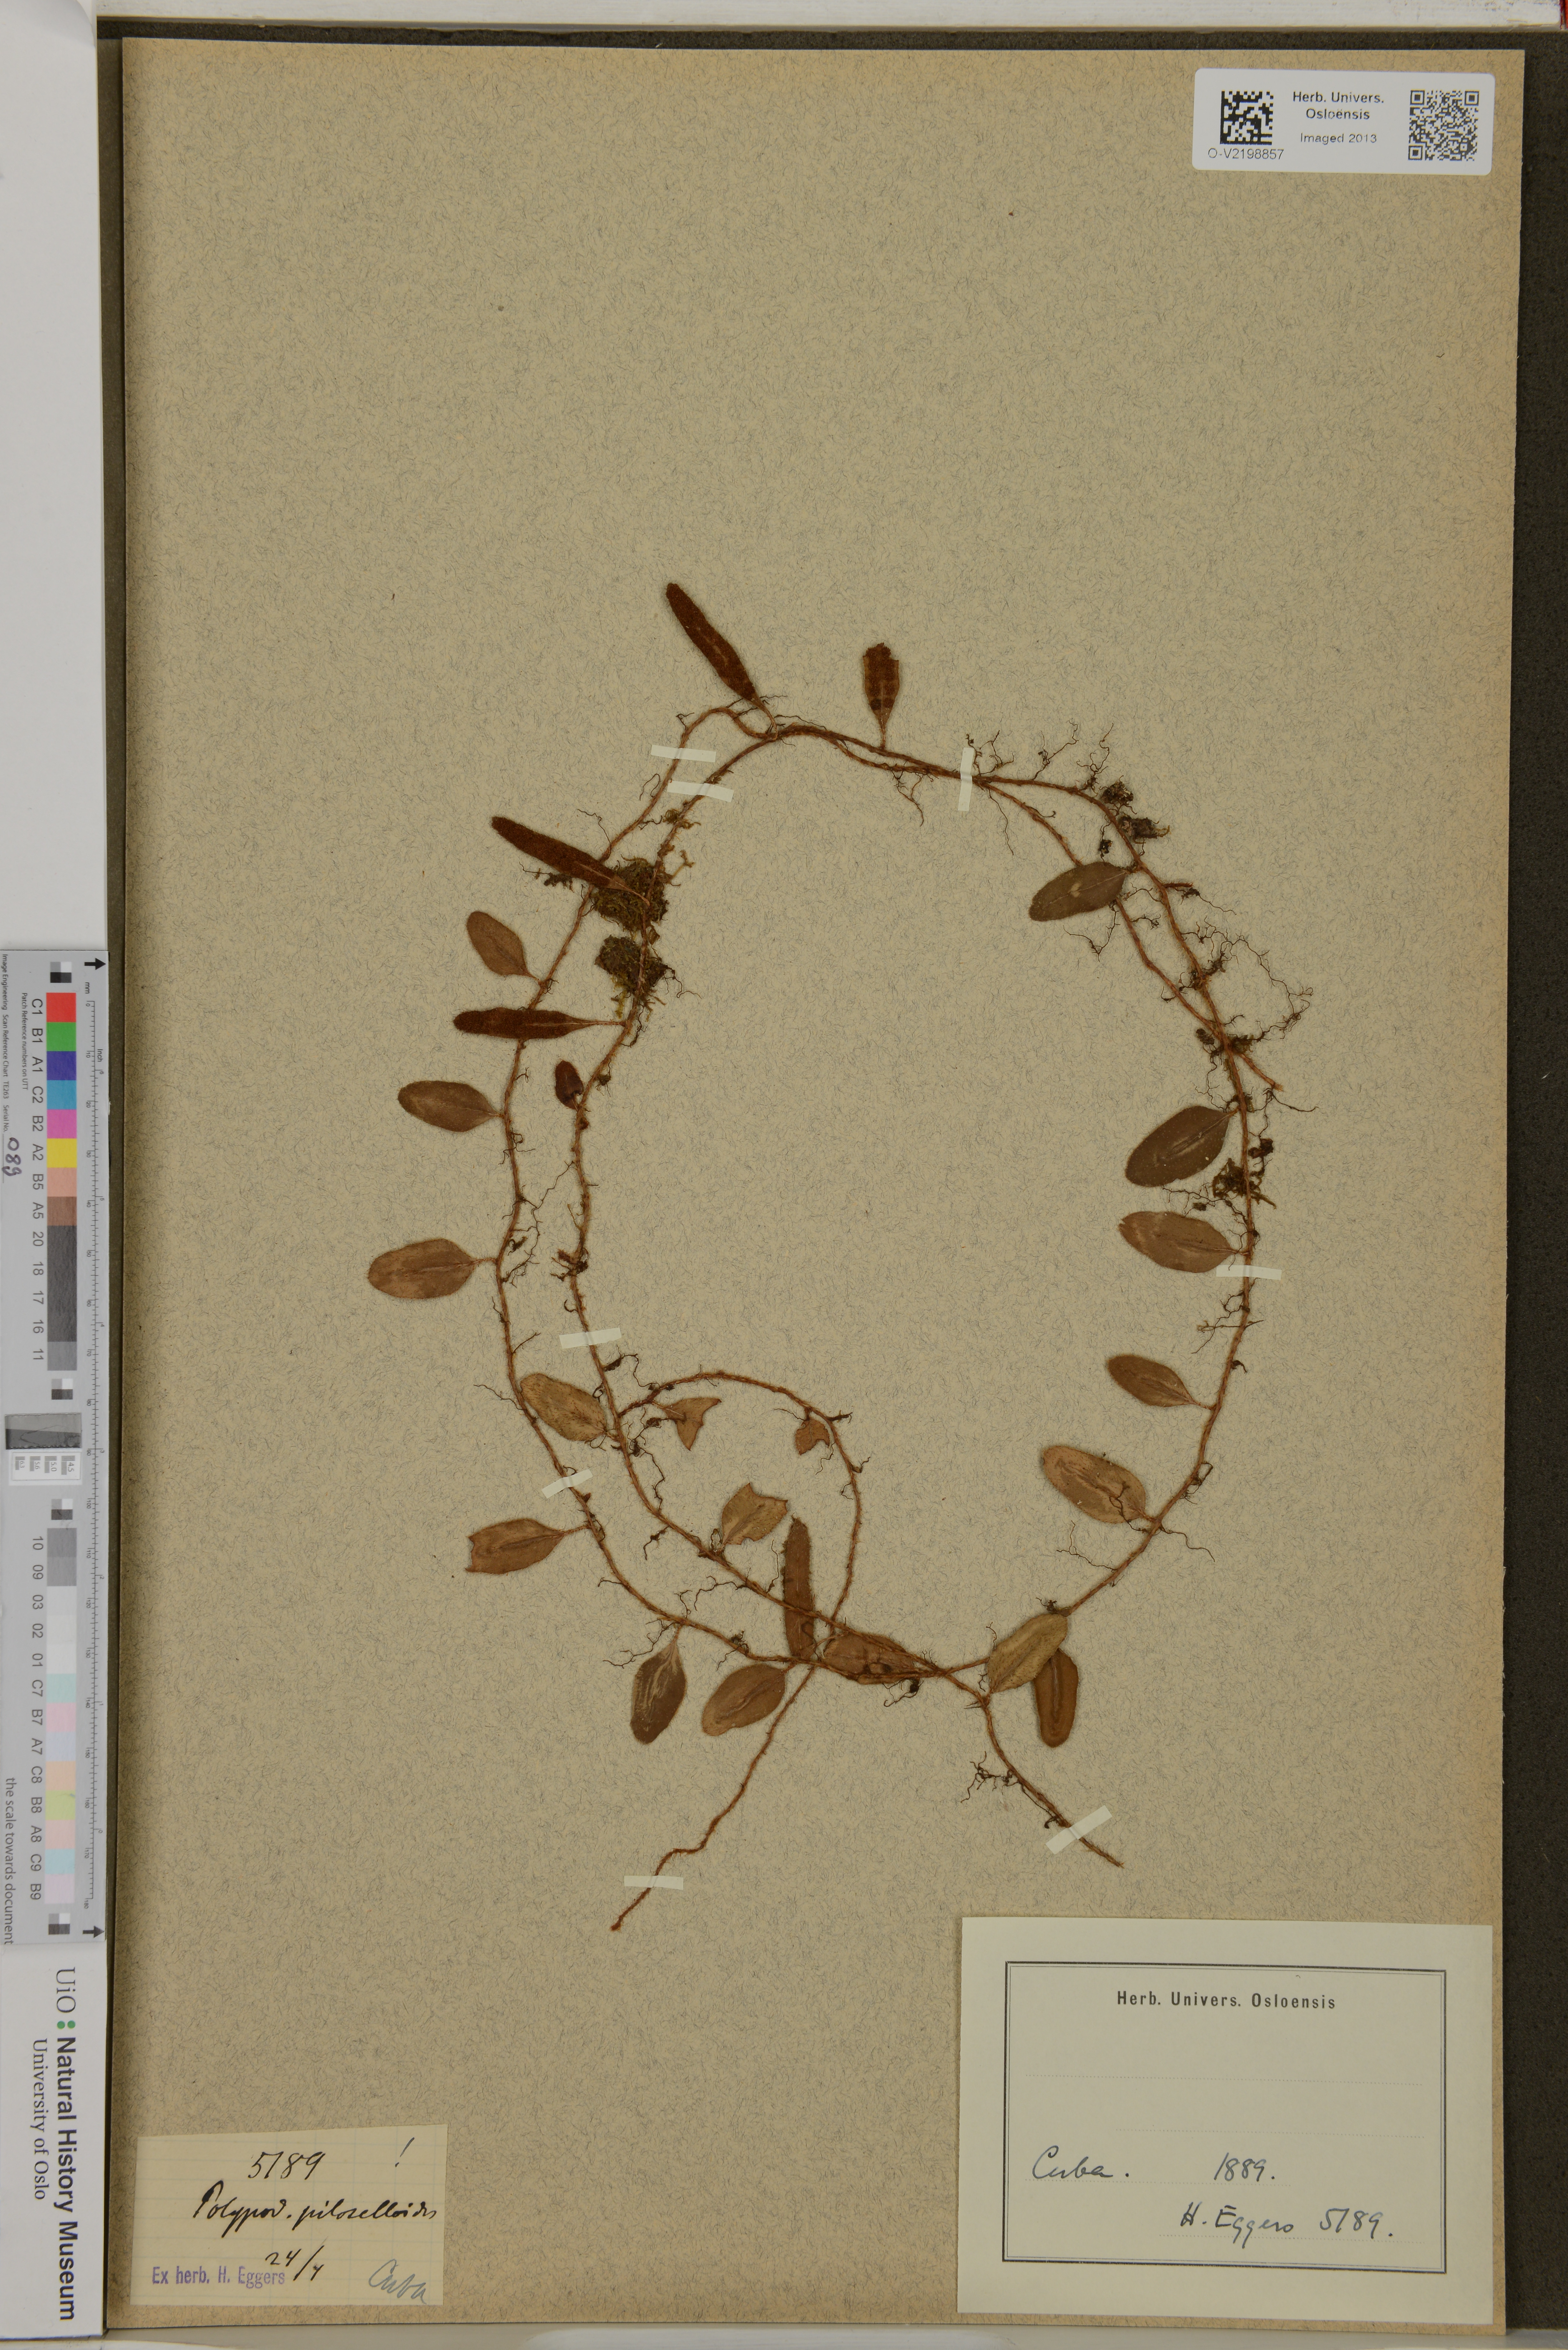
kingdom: Plantae
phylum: Tracheophyta
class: Polypodiopsida
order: Polypodiales
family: Polypodiaceae
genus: Polypodium
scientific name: Polypodium piloselloides
